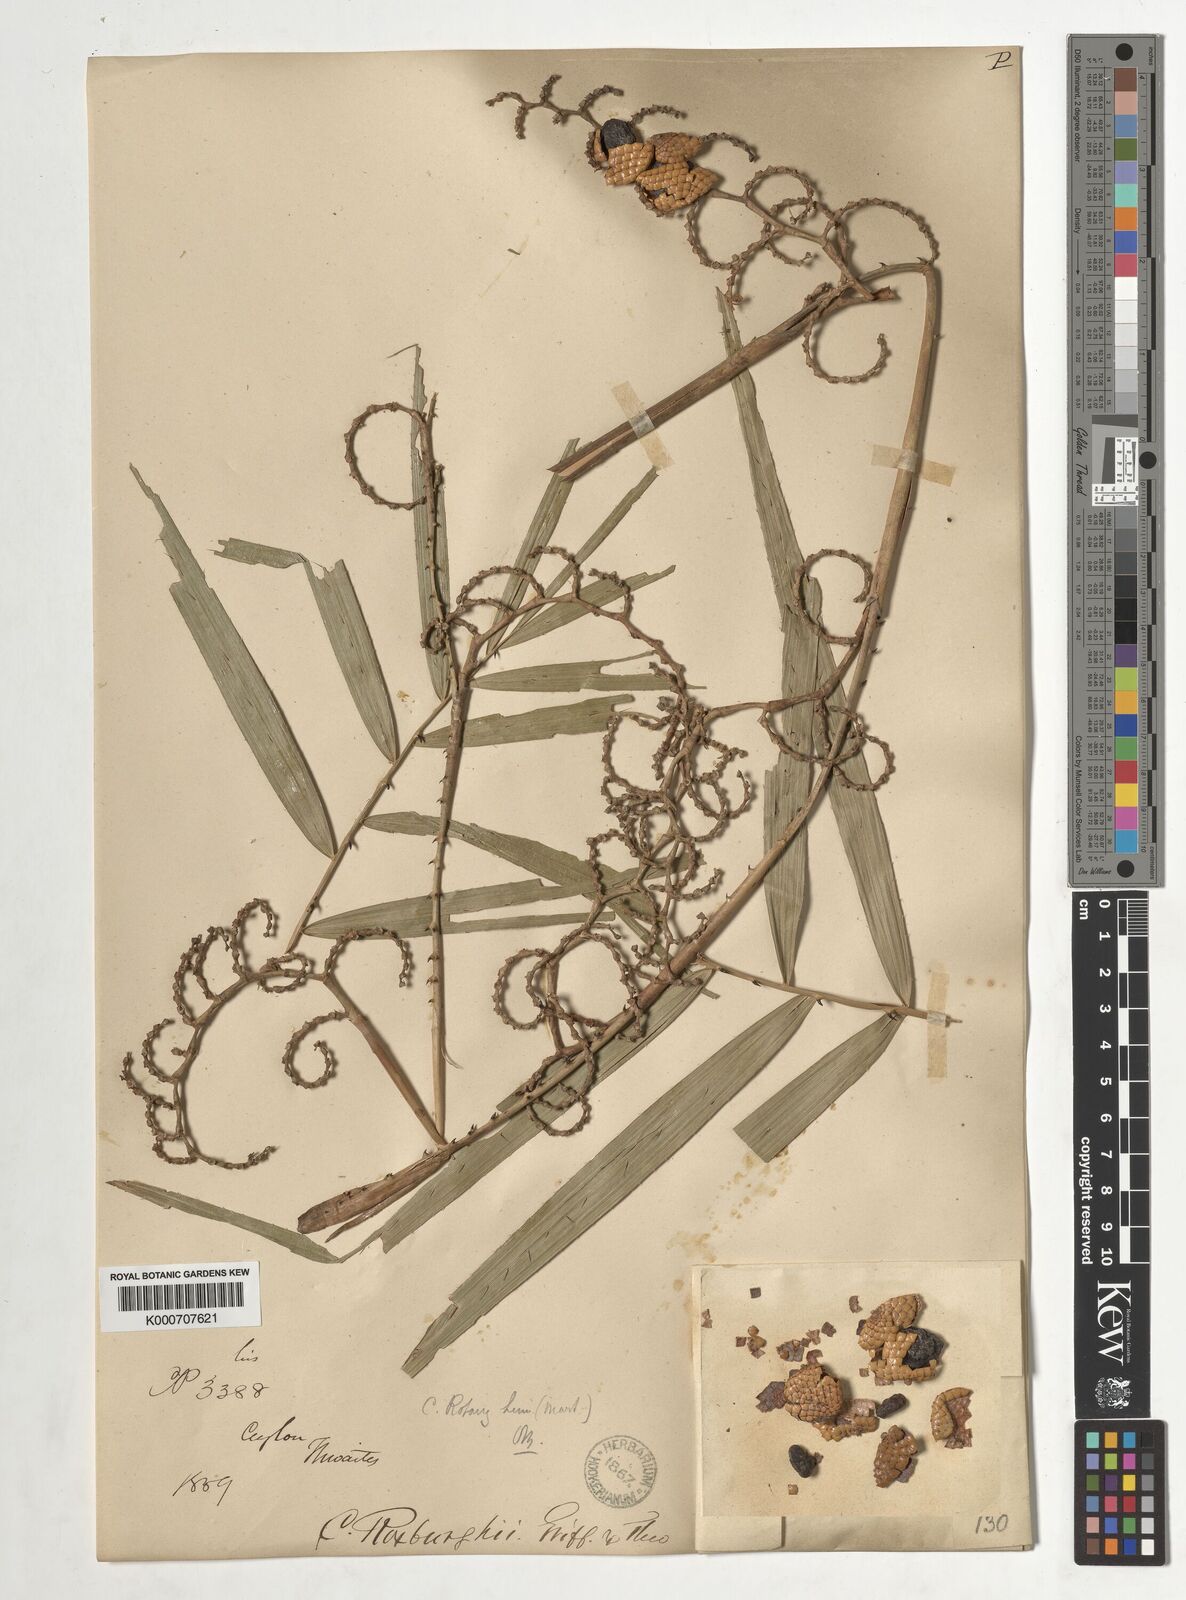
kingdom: Plantae
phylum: Tracheophyta
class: Liliopsida
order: Arecales
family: Arecaceae
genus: Calamus
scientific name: Calamus rotang
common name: Rattan cane
